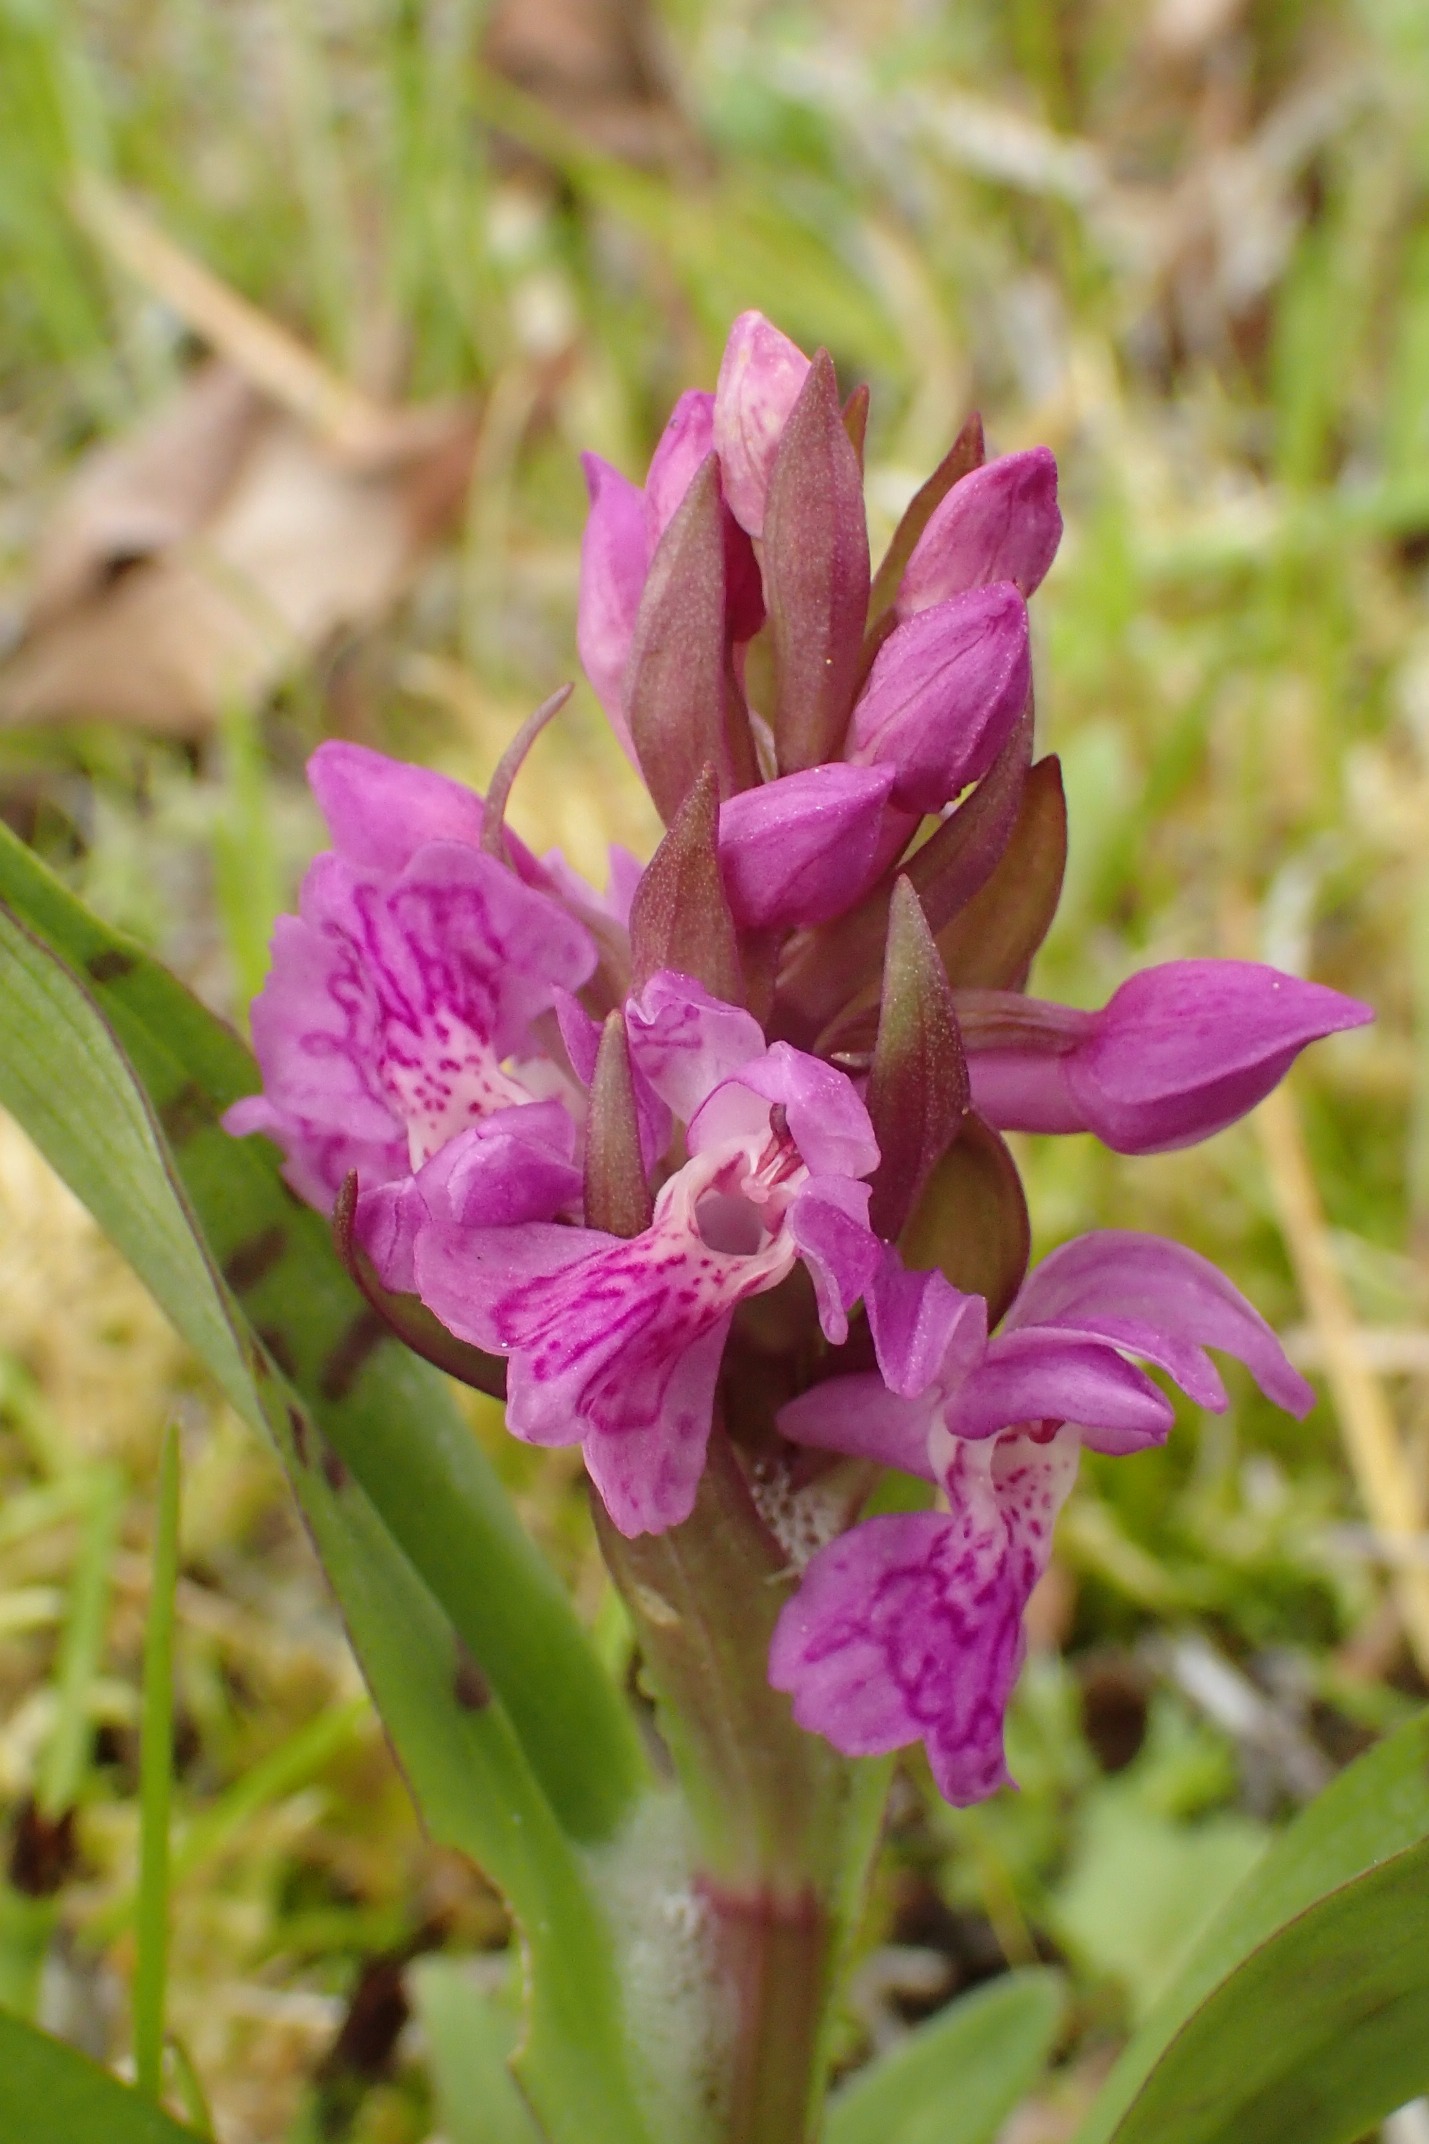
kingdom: Plantae
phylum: Tracheophyta
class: Liliopsida
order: Asparagales
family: Orchidaceae
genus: Dactylorhiza
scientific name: Dactylorhiza majalis
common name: Maj-gøgeurt
